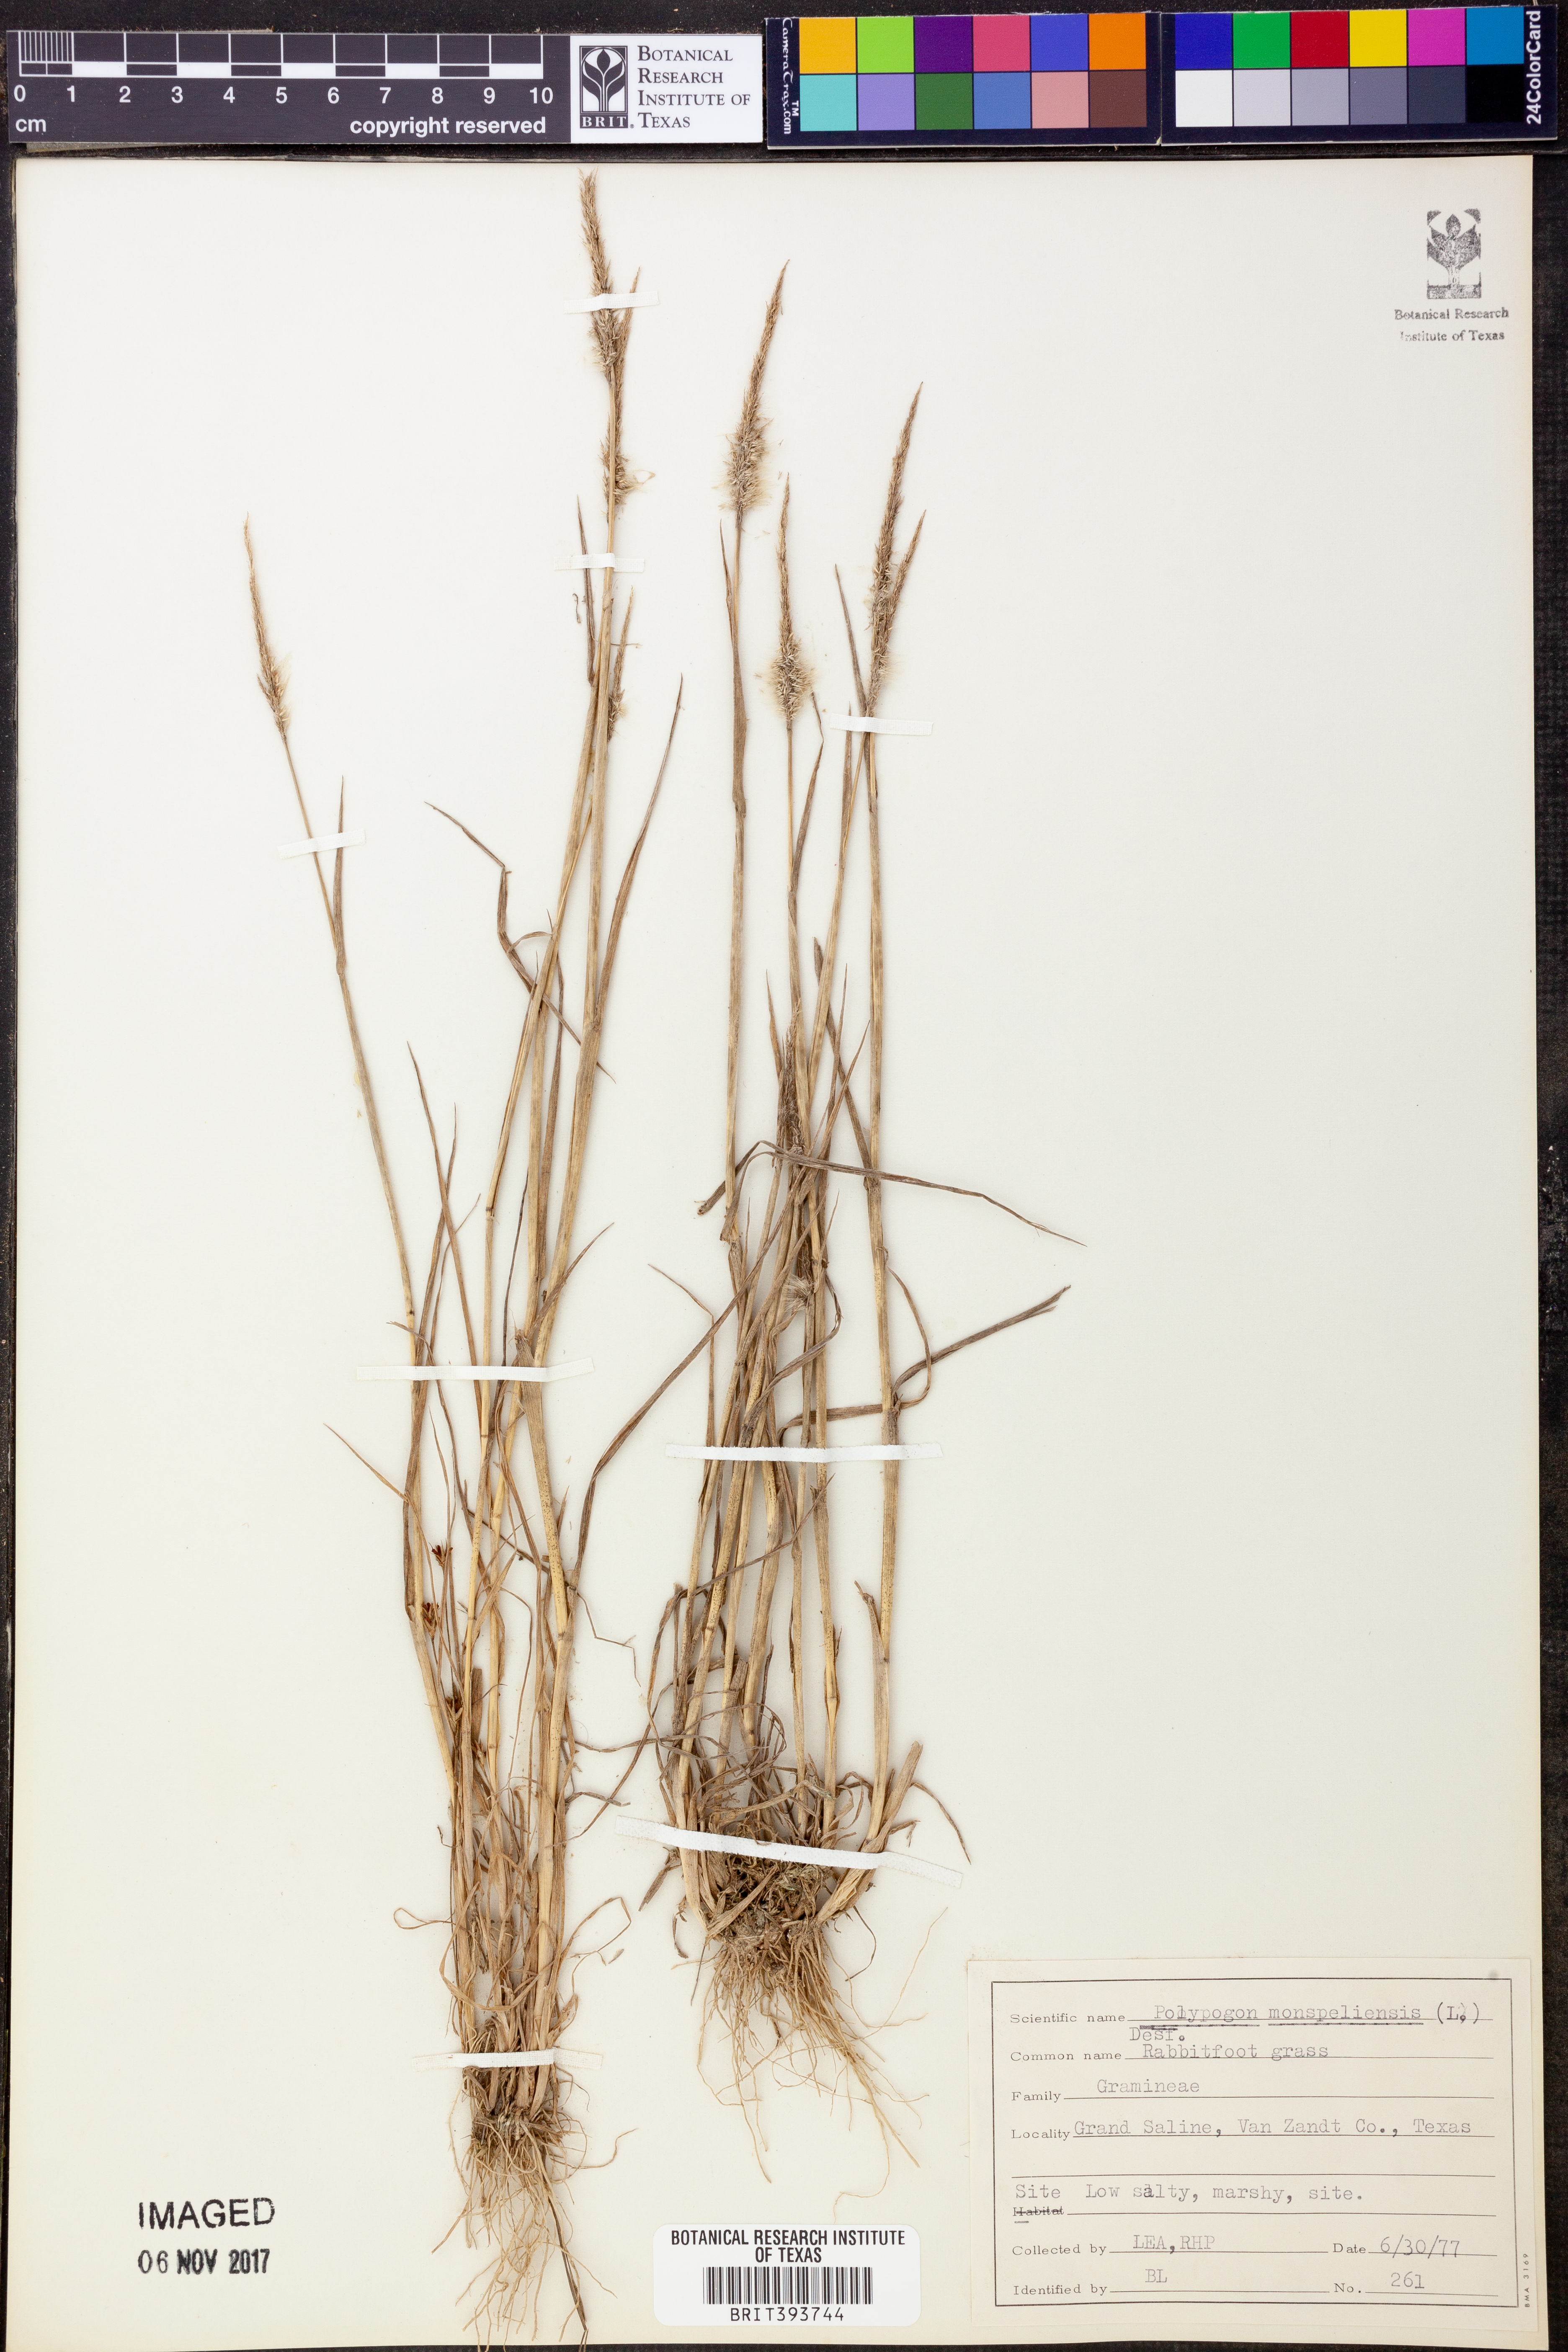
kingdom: Plantae
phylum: Tracheophyta
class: Liliopsida
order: Poales
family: Poaceae
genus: Polypogon
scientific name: Polypogon monspeliensis
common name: Annual rabbitsfoot grass
